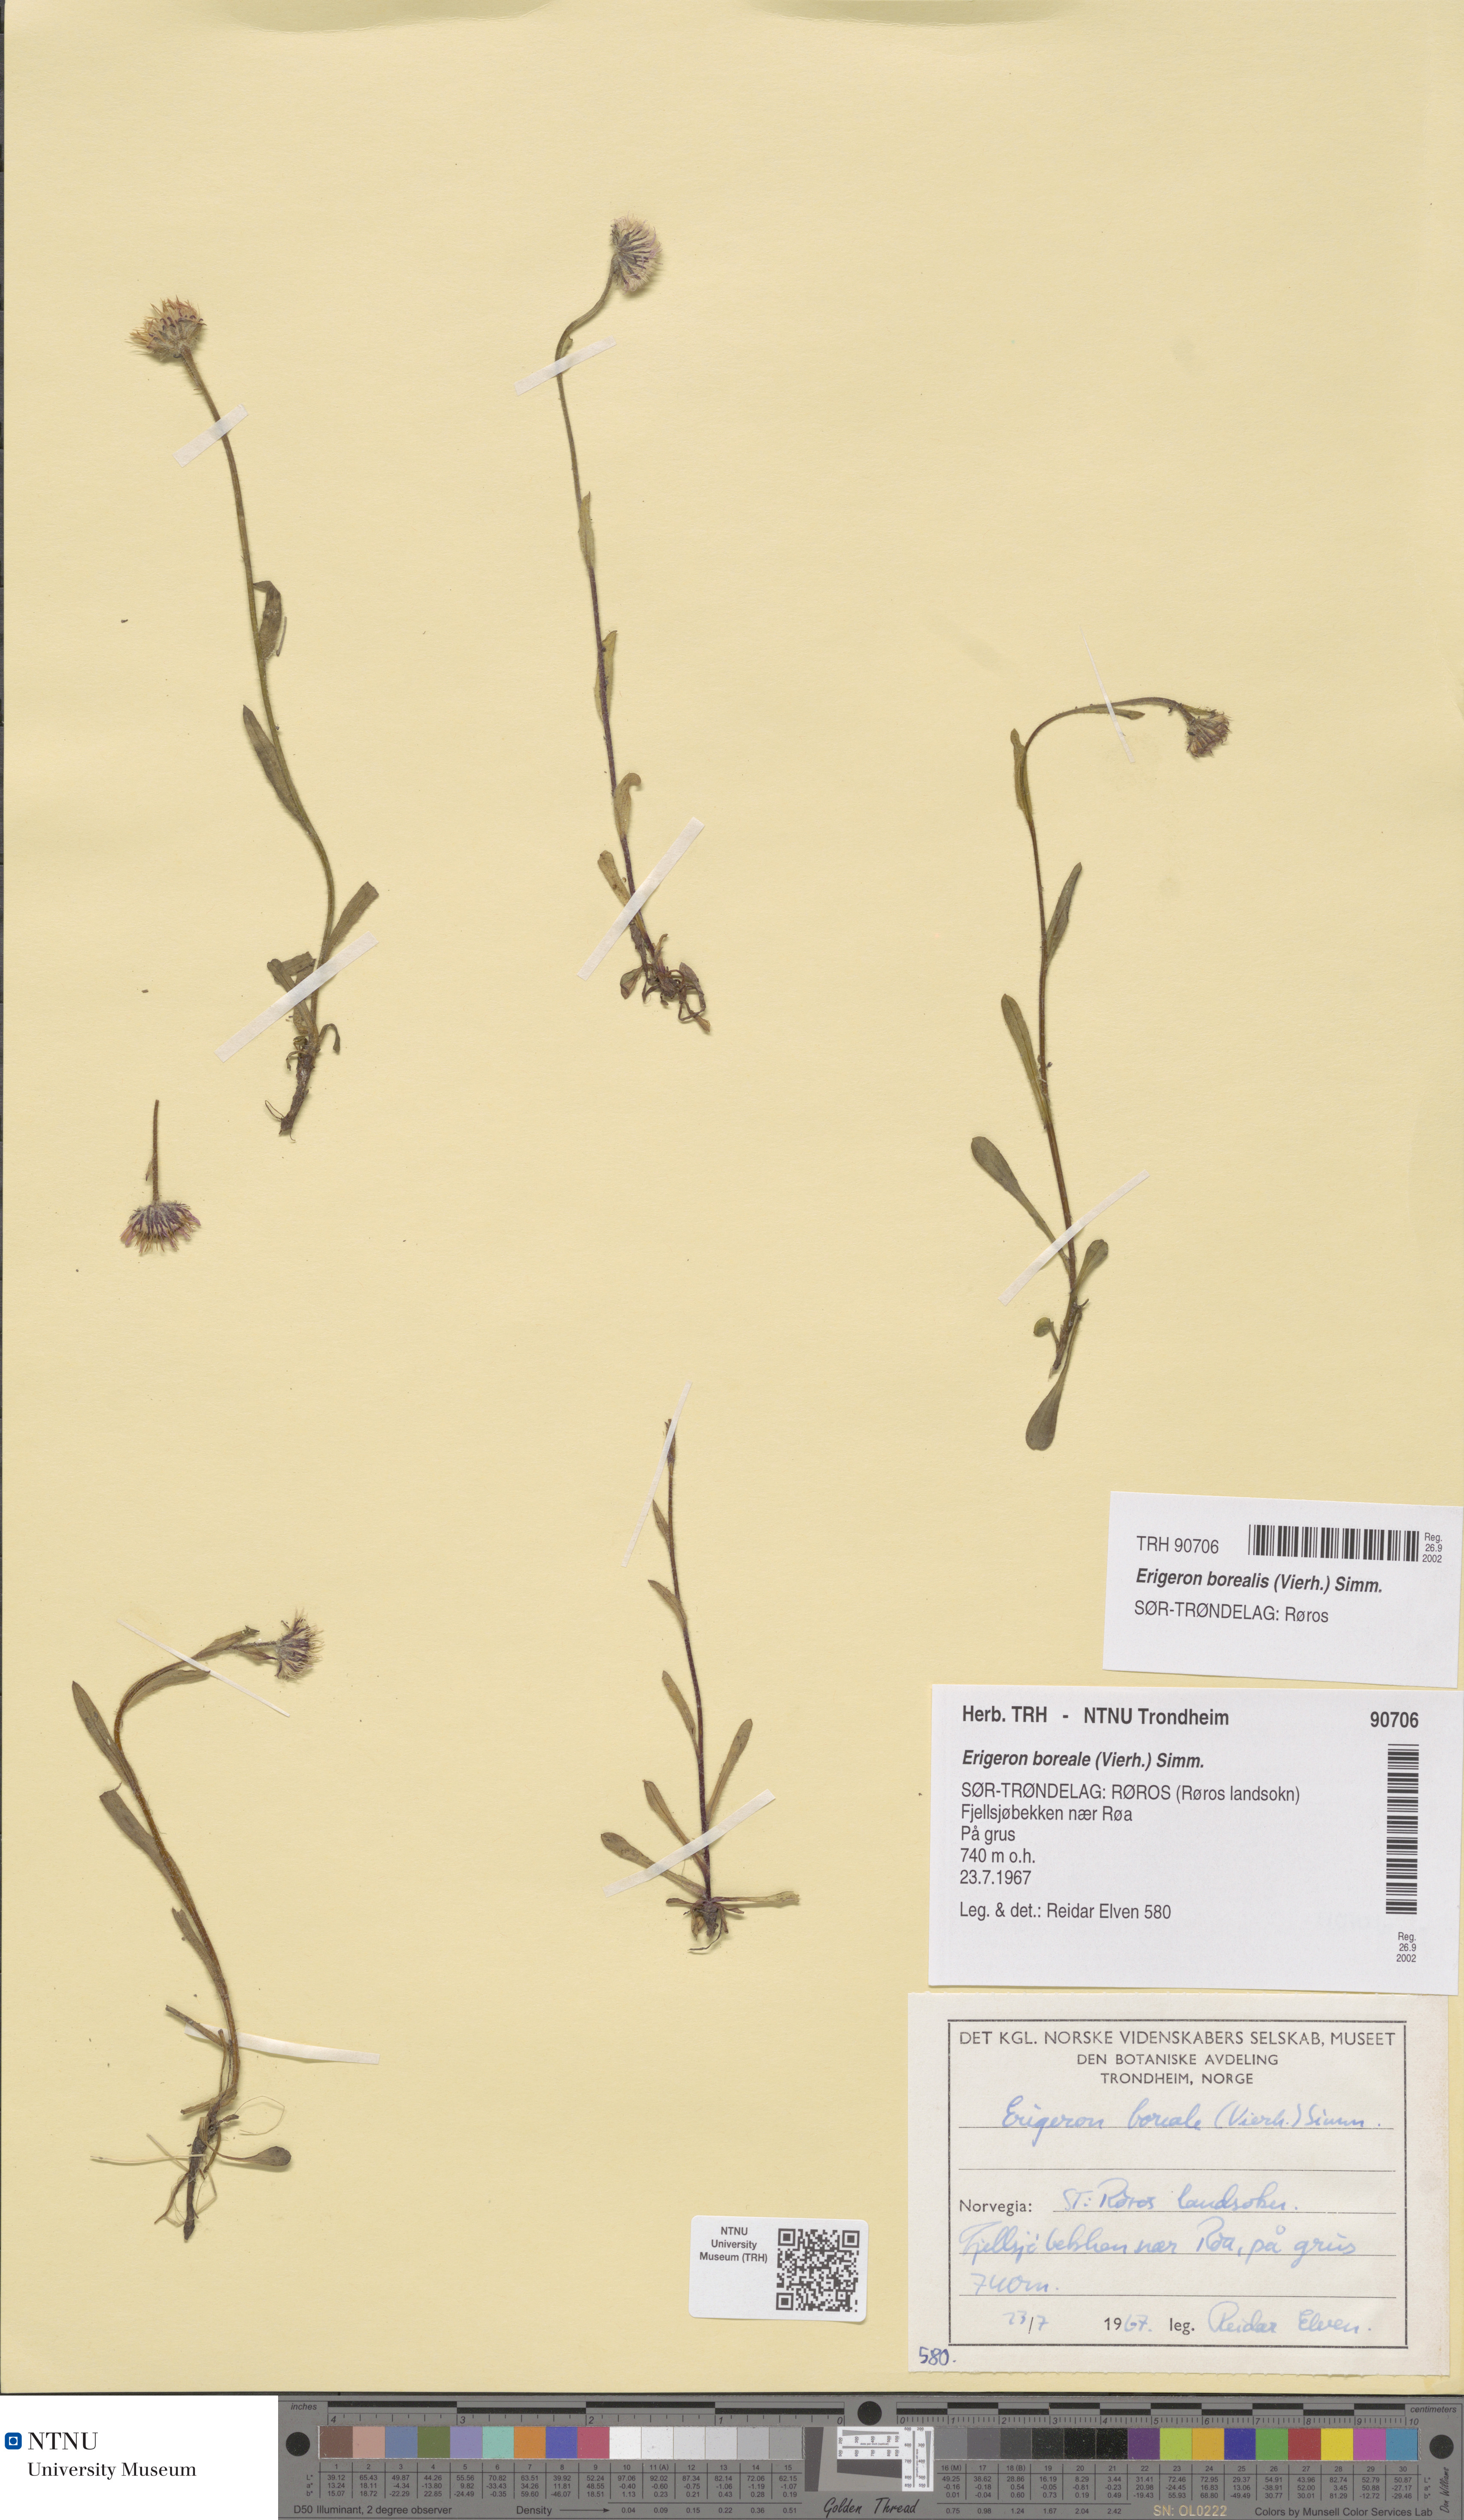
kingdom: Plantae
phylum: Tracheophyta
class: Magnoliopsida
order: Asterales
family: Asteraceae
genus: Erigeron
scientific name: Erigeron borealis
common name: Alpine fleabane
